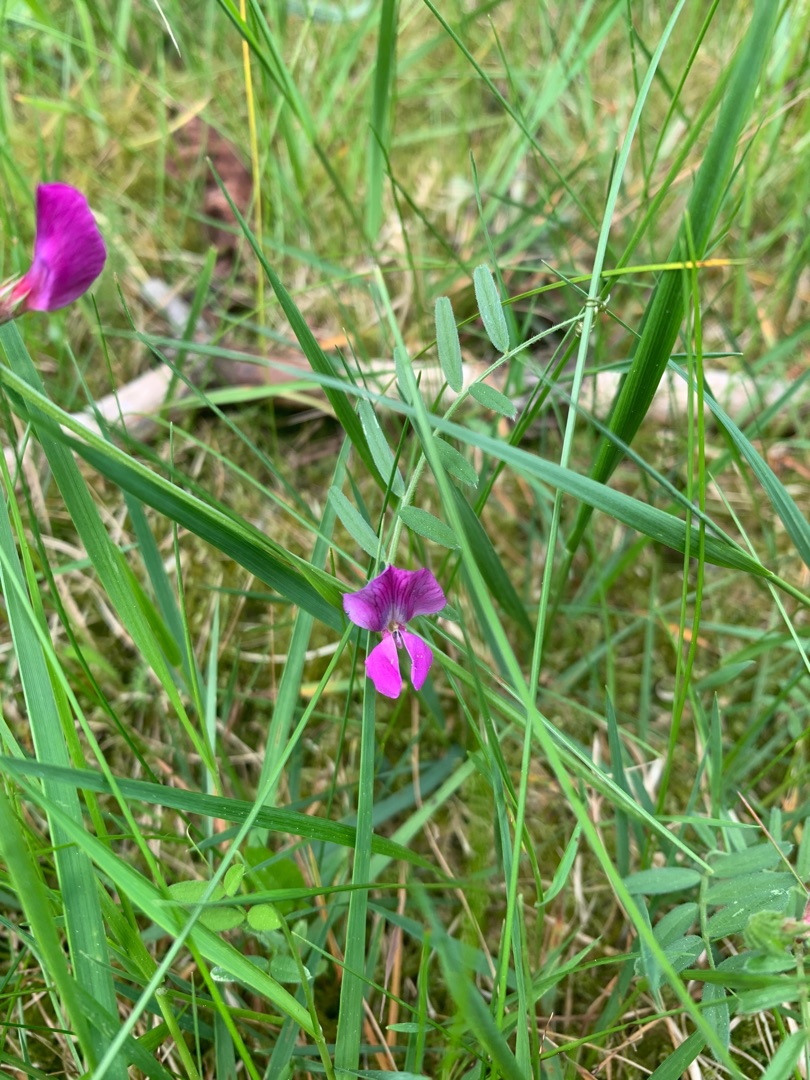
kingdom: Plantae
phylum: Tracheophyta
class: Magnoliopsida
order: Fabales
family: Fabaceae
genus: Vicia
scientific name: Vicia sativa
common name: Smalbladet vikke
